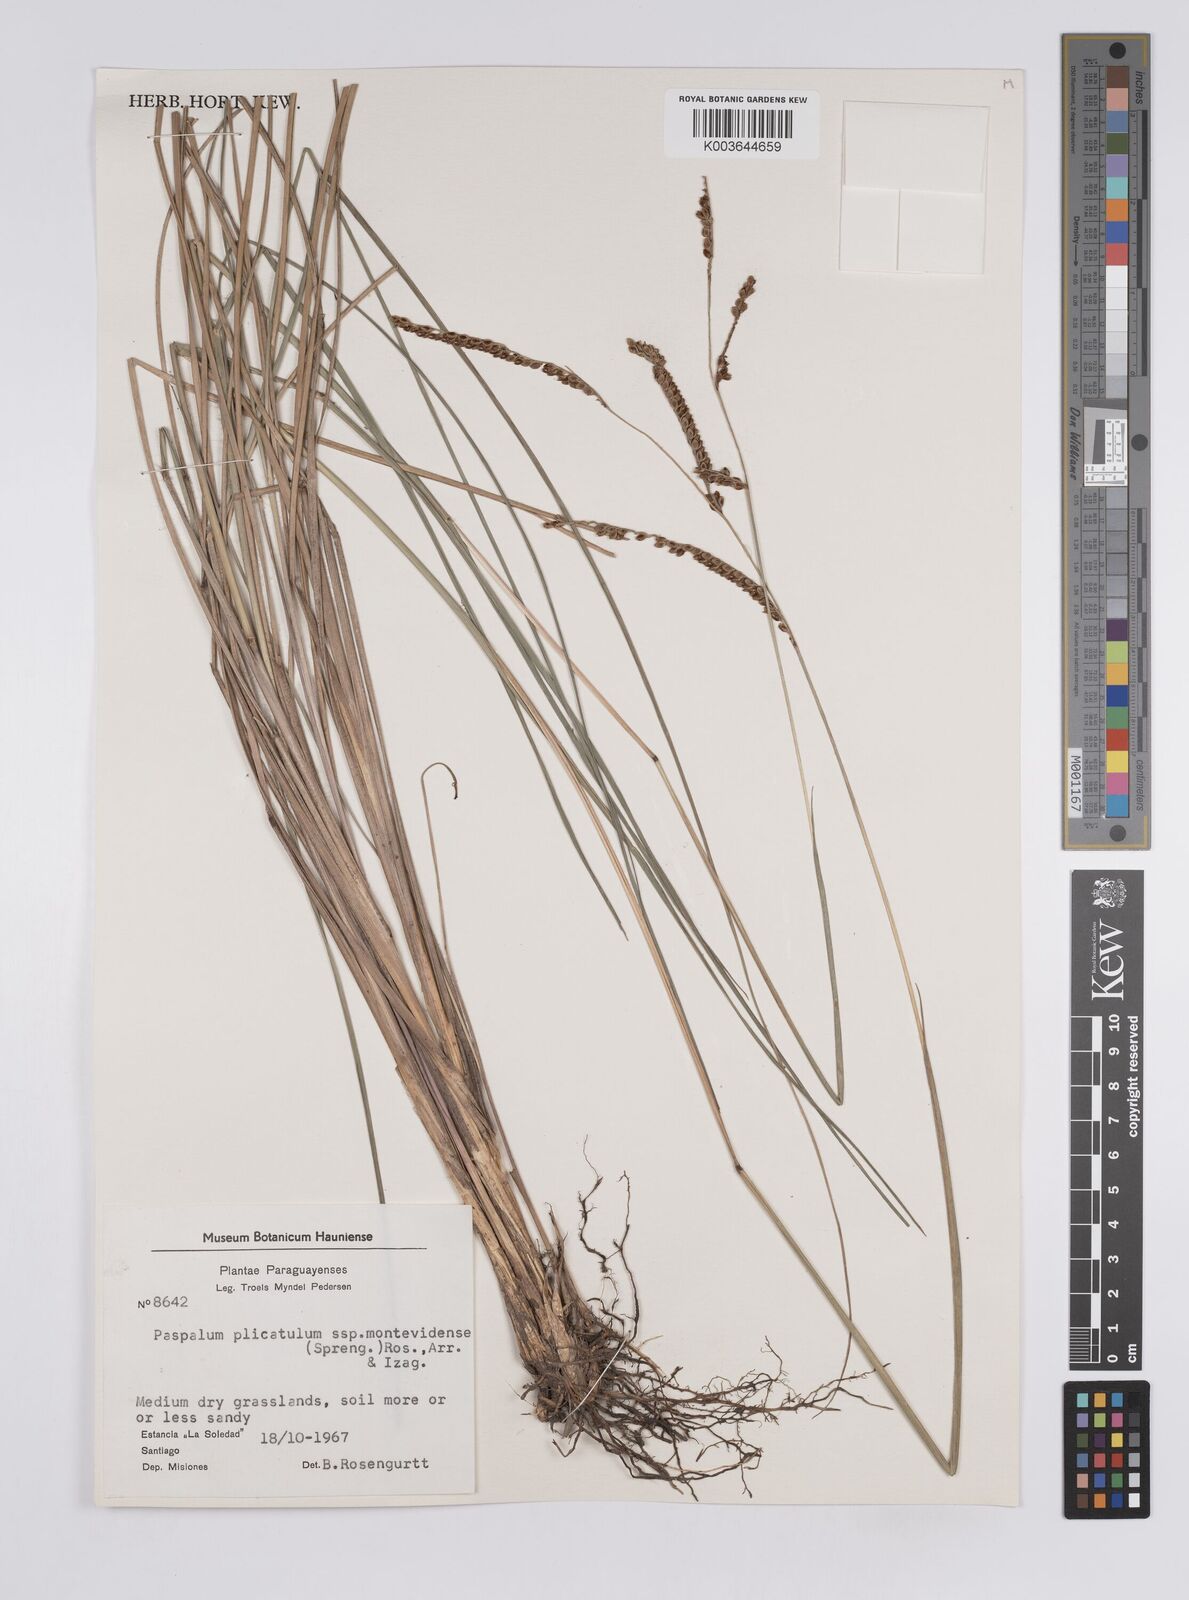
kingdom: Plantae
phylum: Tracheophyta
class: Liliopsida
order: Poales
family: Poaceae
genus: Paspalum
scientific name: Paspalum plicatulum
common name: Top paspalum
